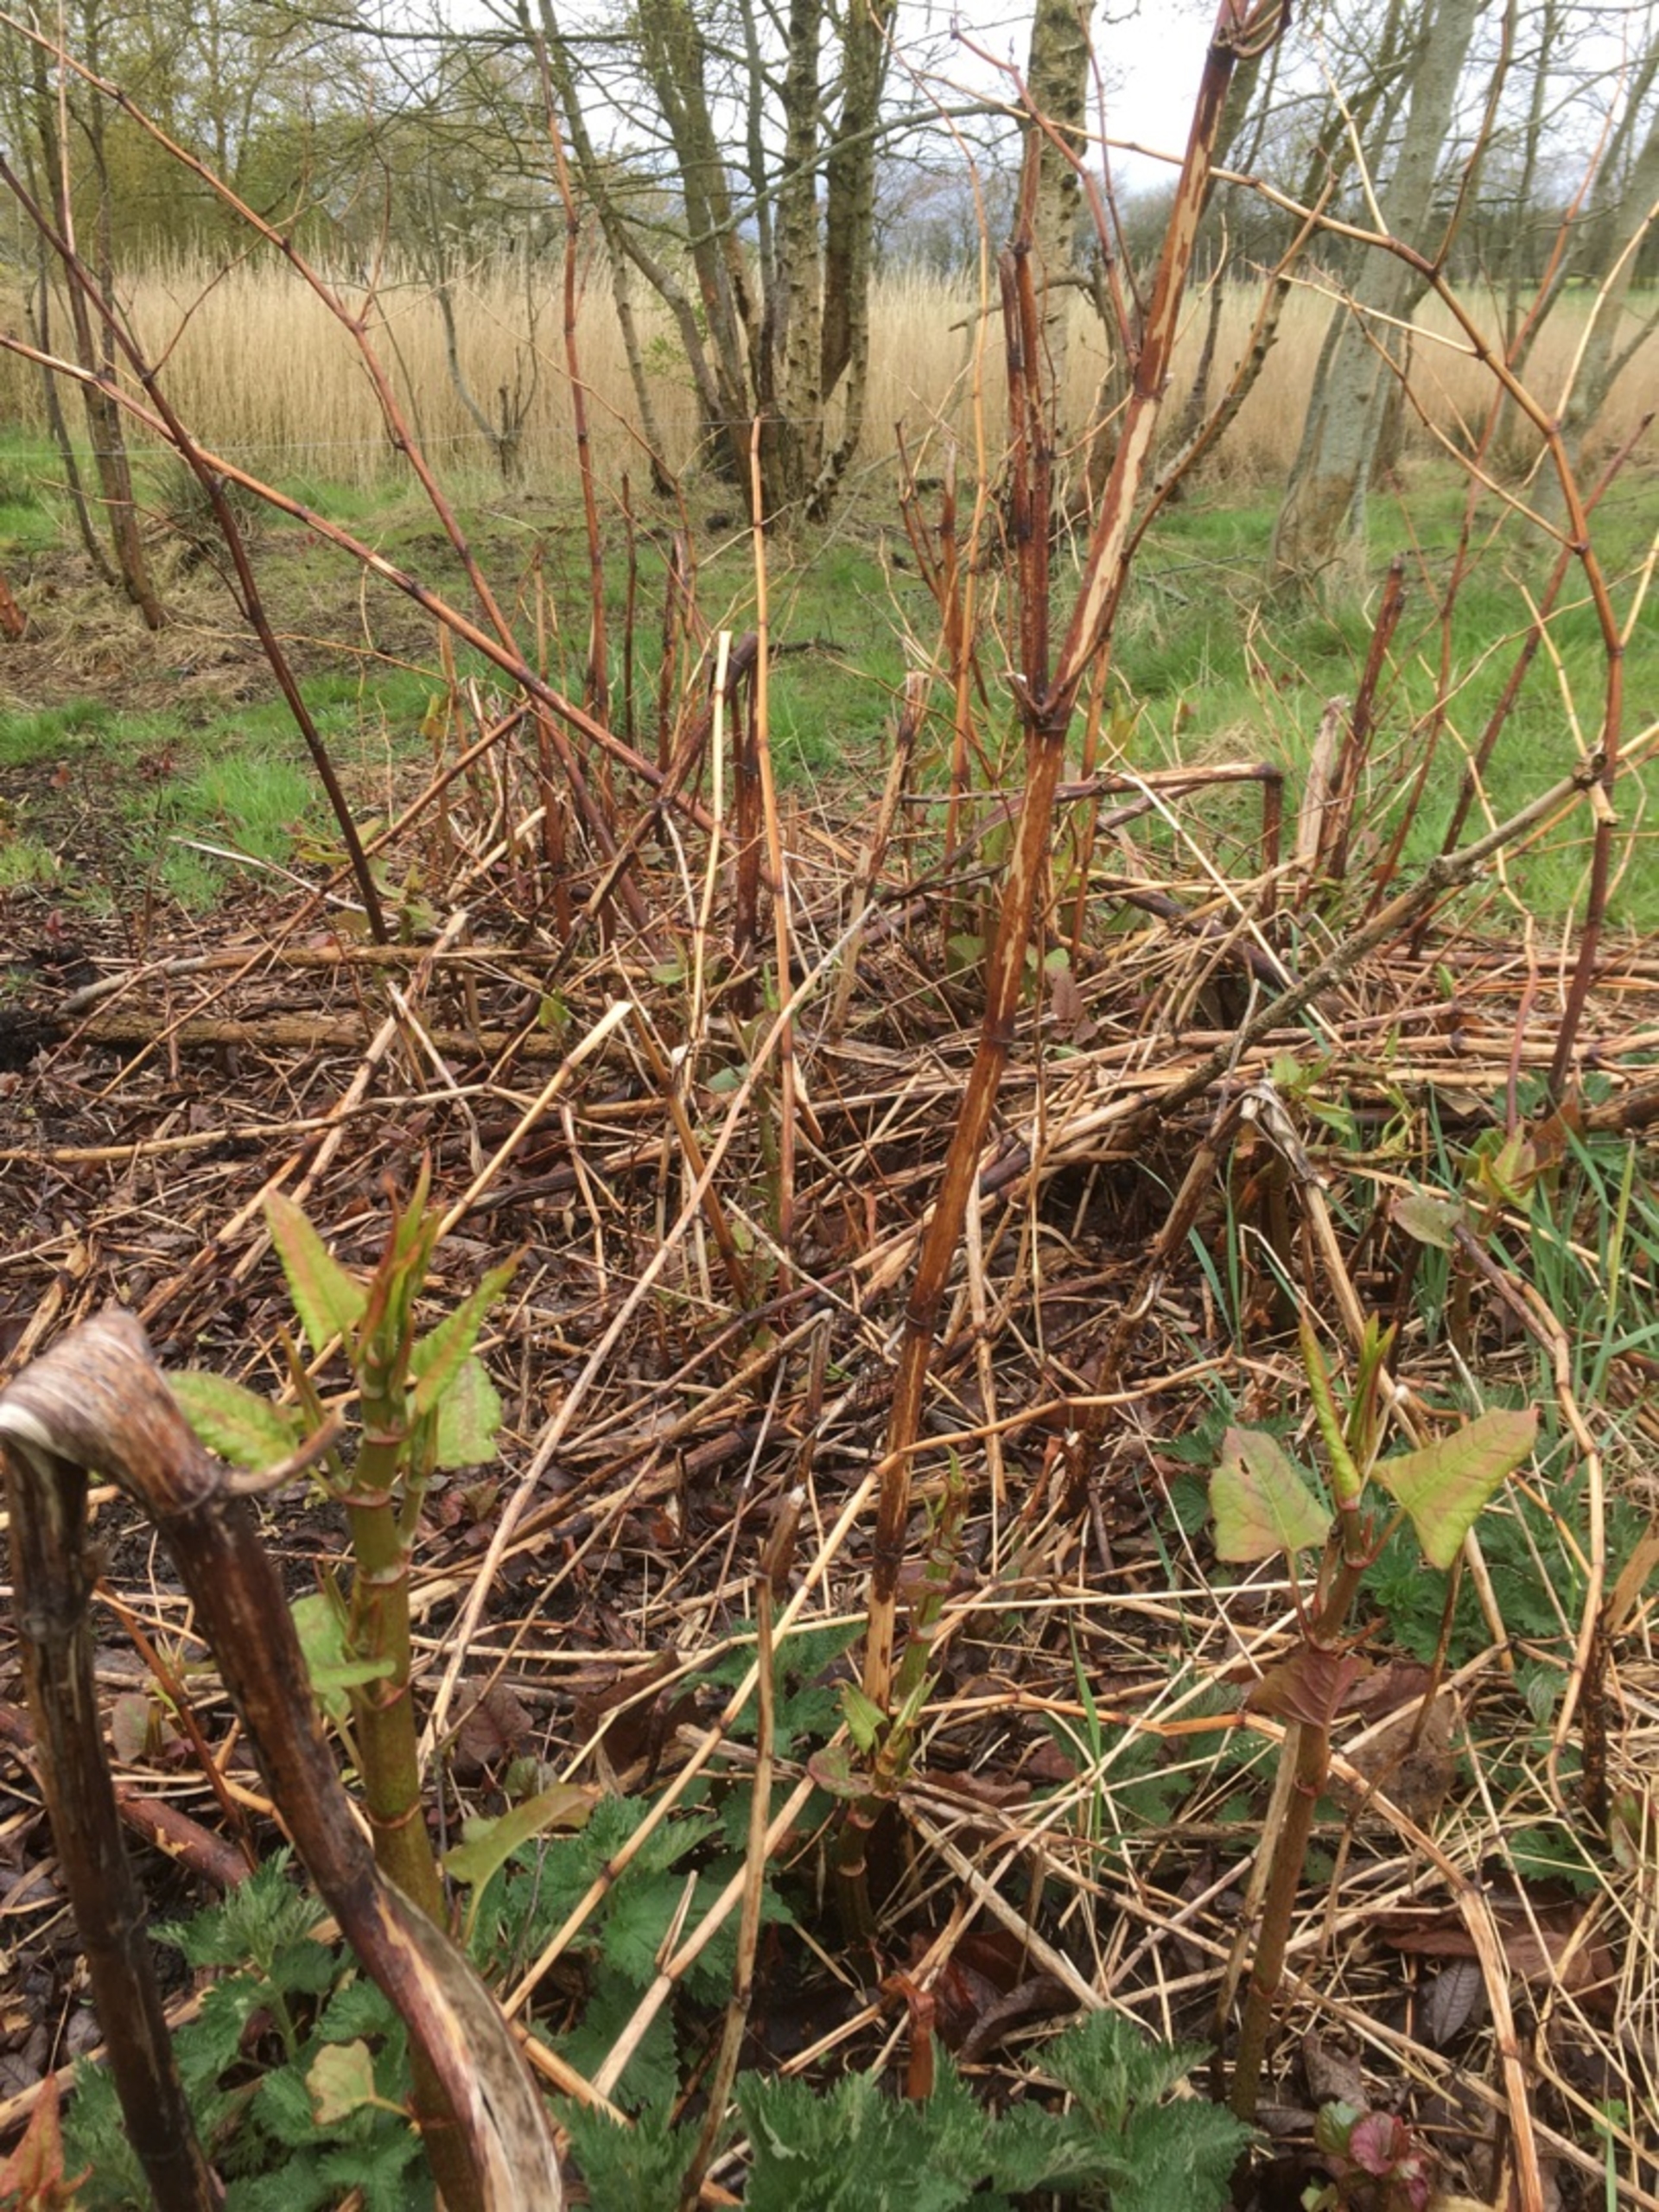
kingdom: Plantae
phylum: Tracheophyta
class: Magnoliopsida
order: Caryophyllales
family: Polygonaceae
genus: Reynoutria
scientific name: Reynoutria japonica
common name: Japan-pileurt
